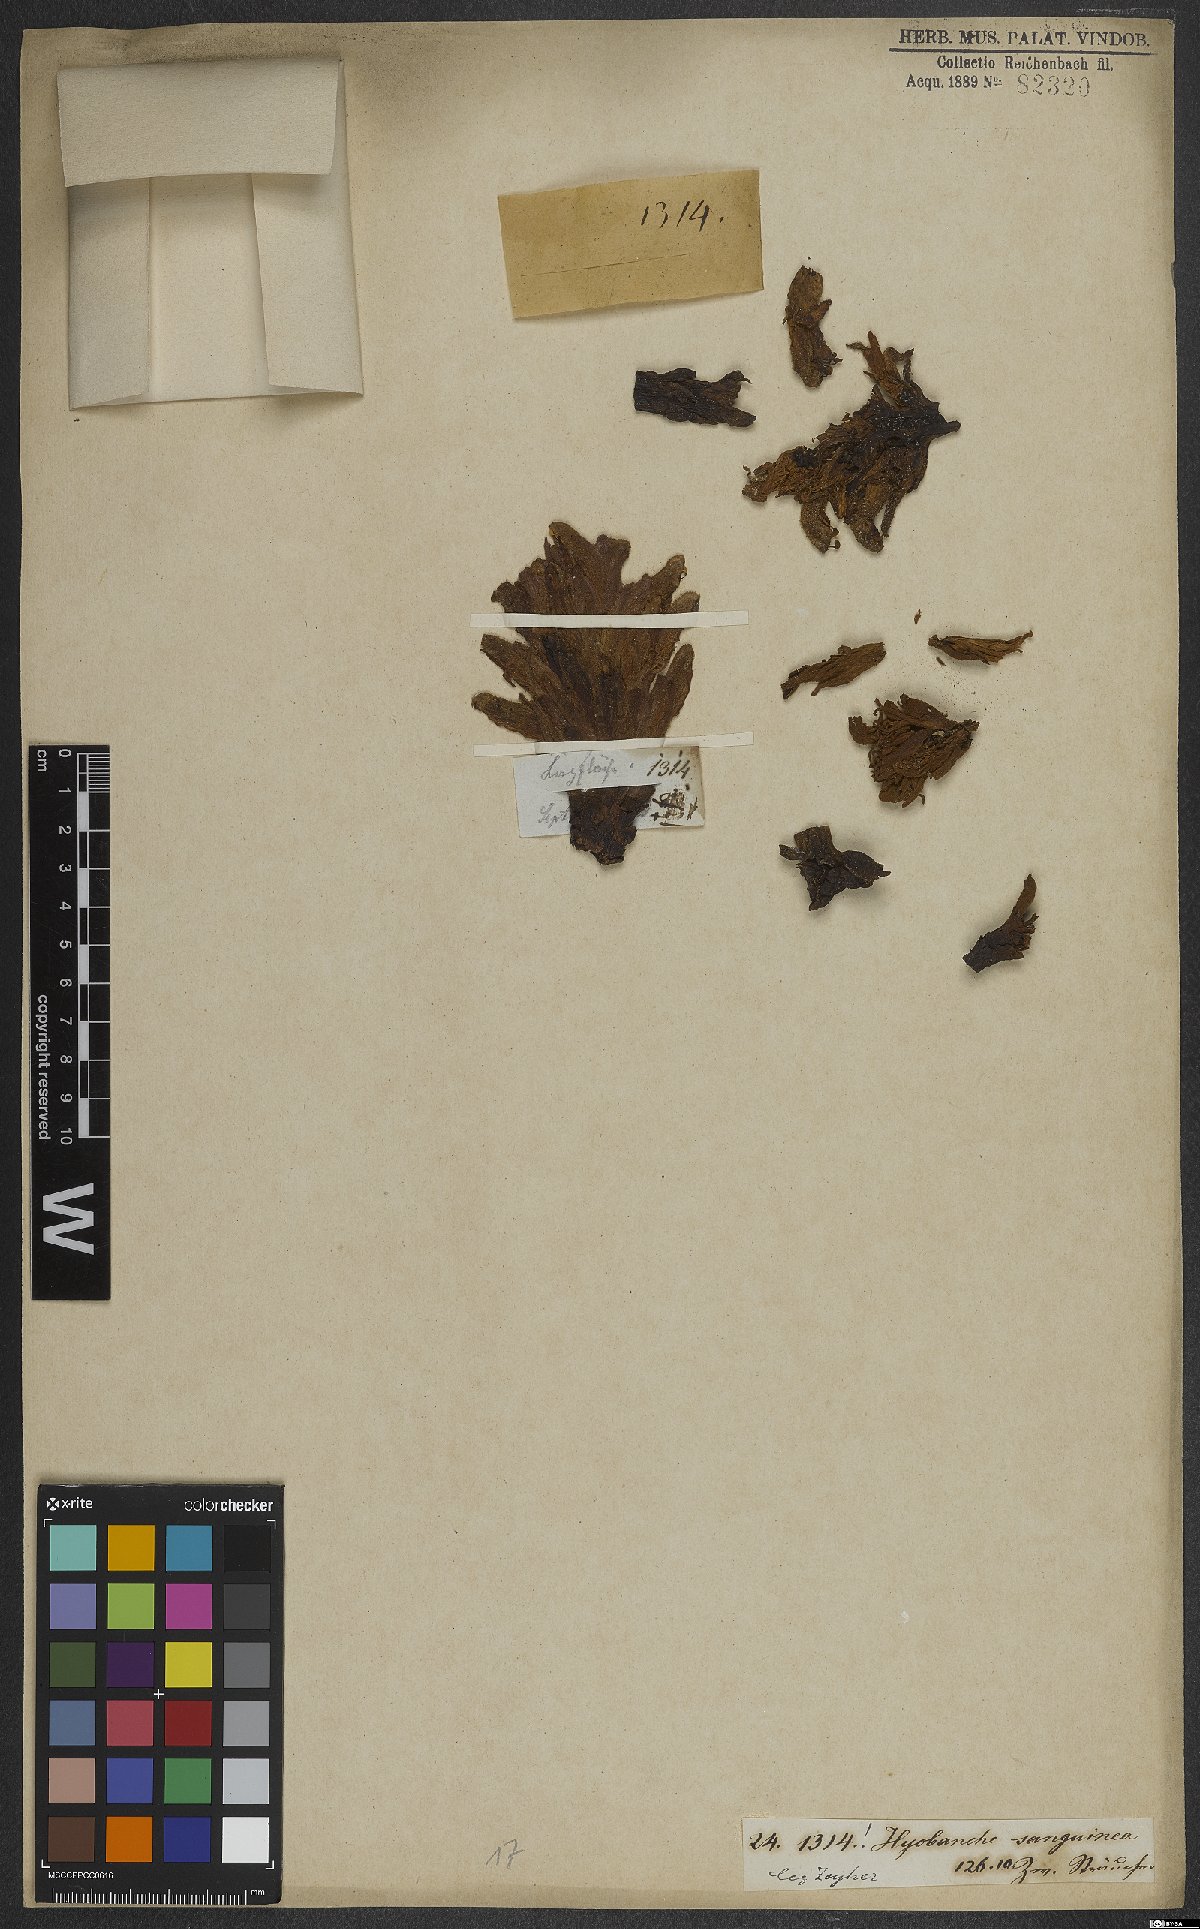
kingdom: Plantae
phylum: Tracheophyta
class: Magnoliopsida
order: Lamiales
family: Orobanchaceae
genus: Hyobanche
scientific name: Hyobanche sanguinea
